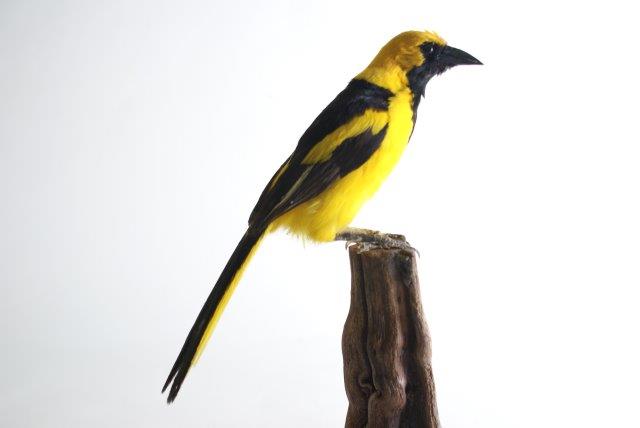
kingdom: Animalia
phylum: Chordata
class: Aves
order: Passeriformes
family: Icteridae
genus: Icterus
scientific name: Icterus mesomelas
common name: Yellow-tailed oriole
